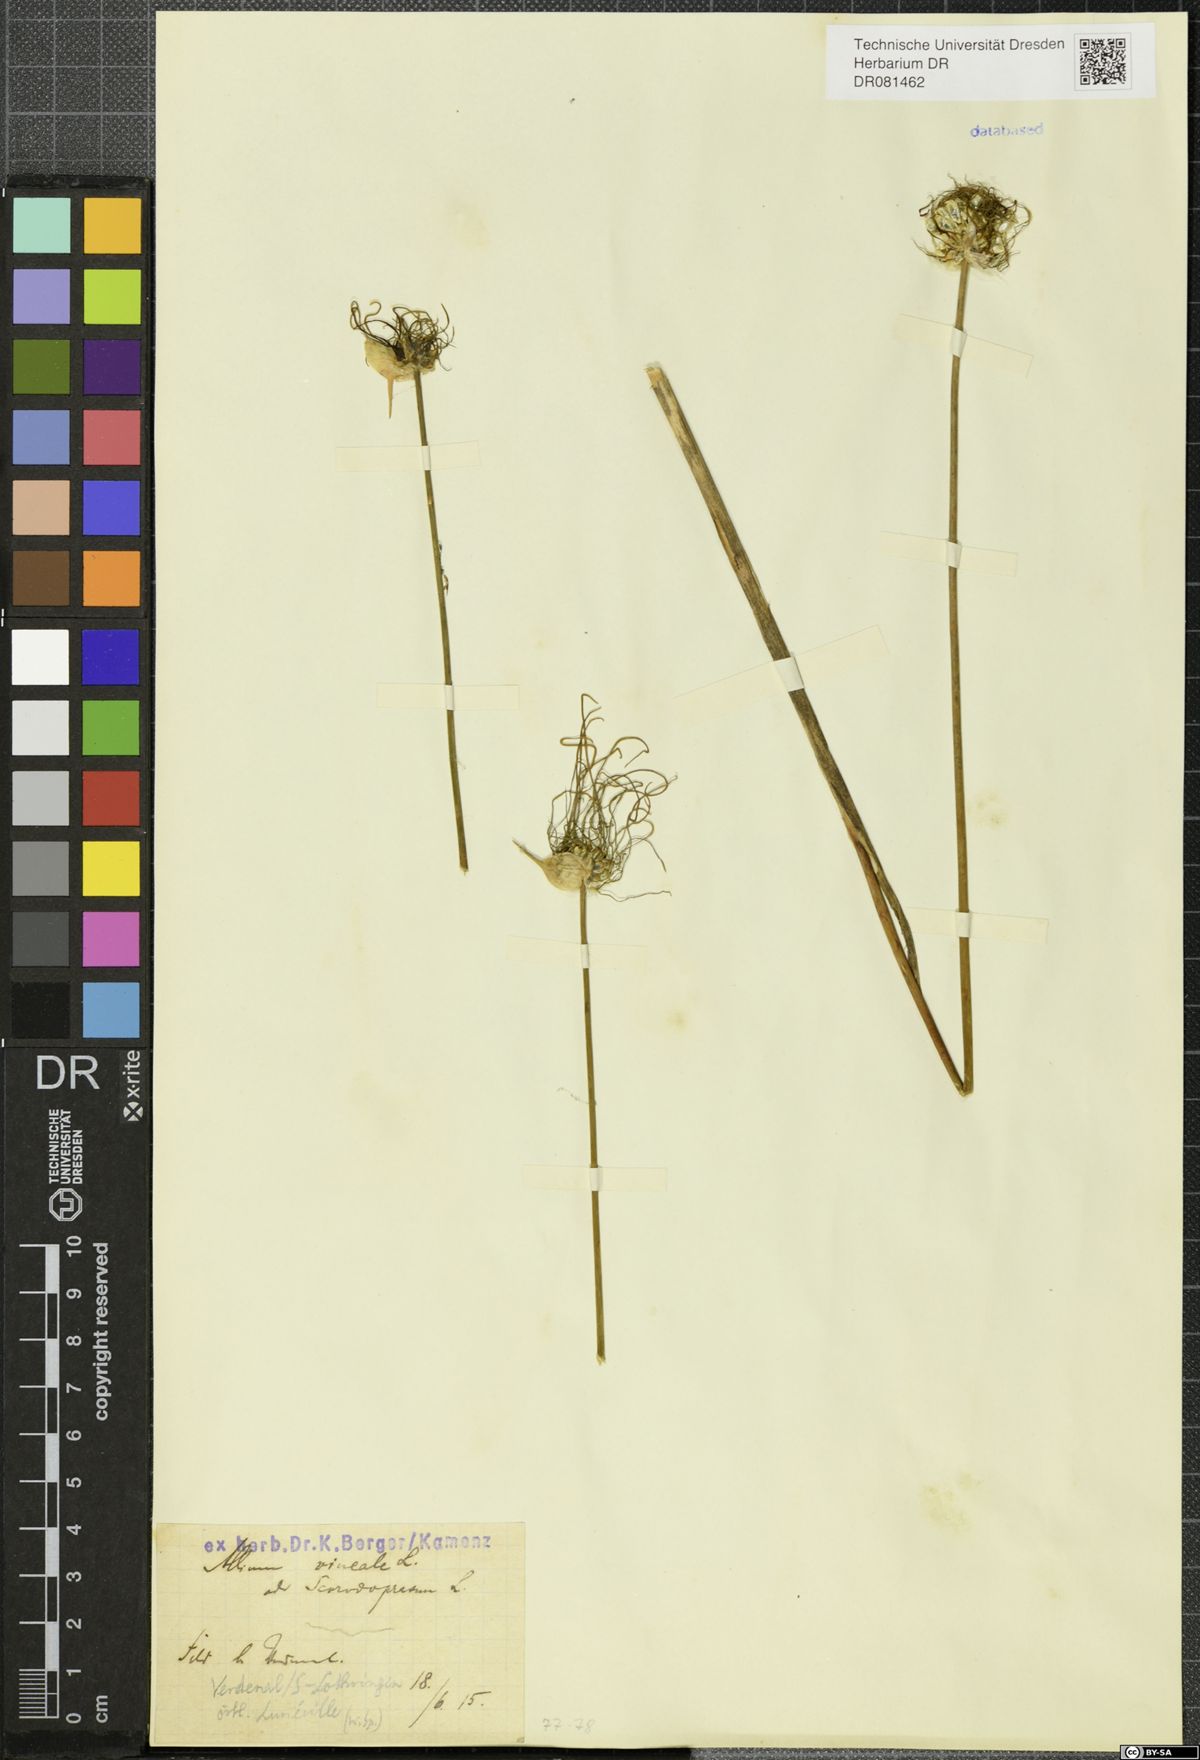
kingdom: Plantae
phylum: Tracheophyta
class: Liliopsida
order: Asparagales
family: Amaryllidaceae
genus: Allium
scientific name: Allium vineale
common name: Crow garlic
